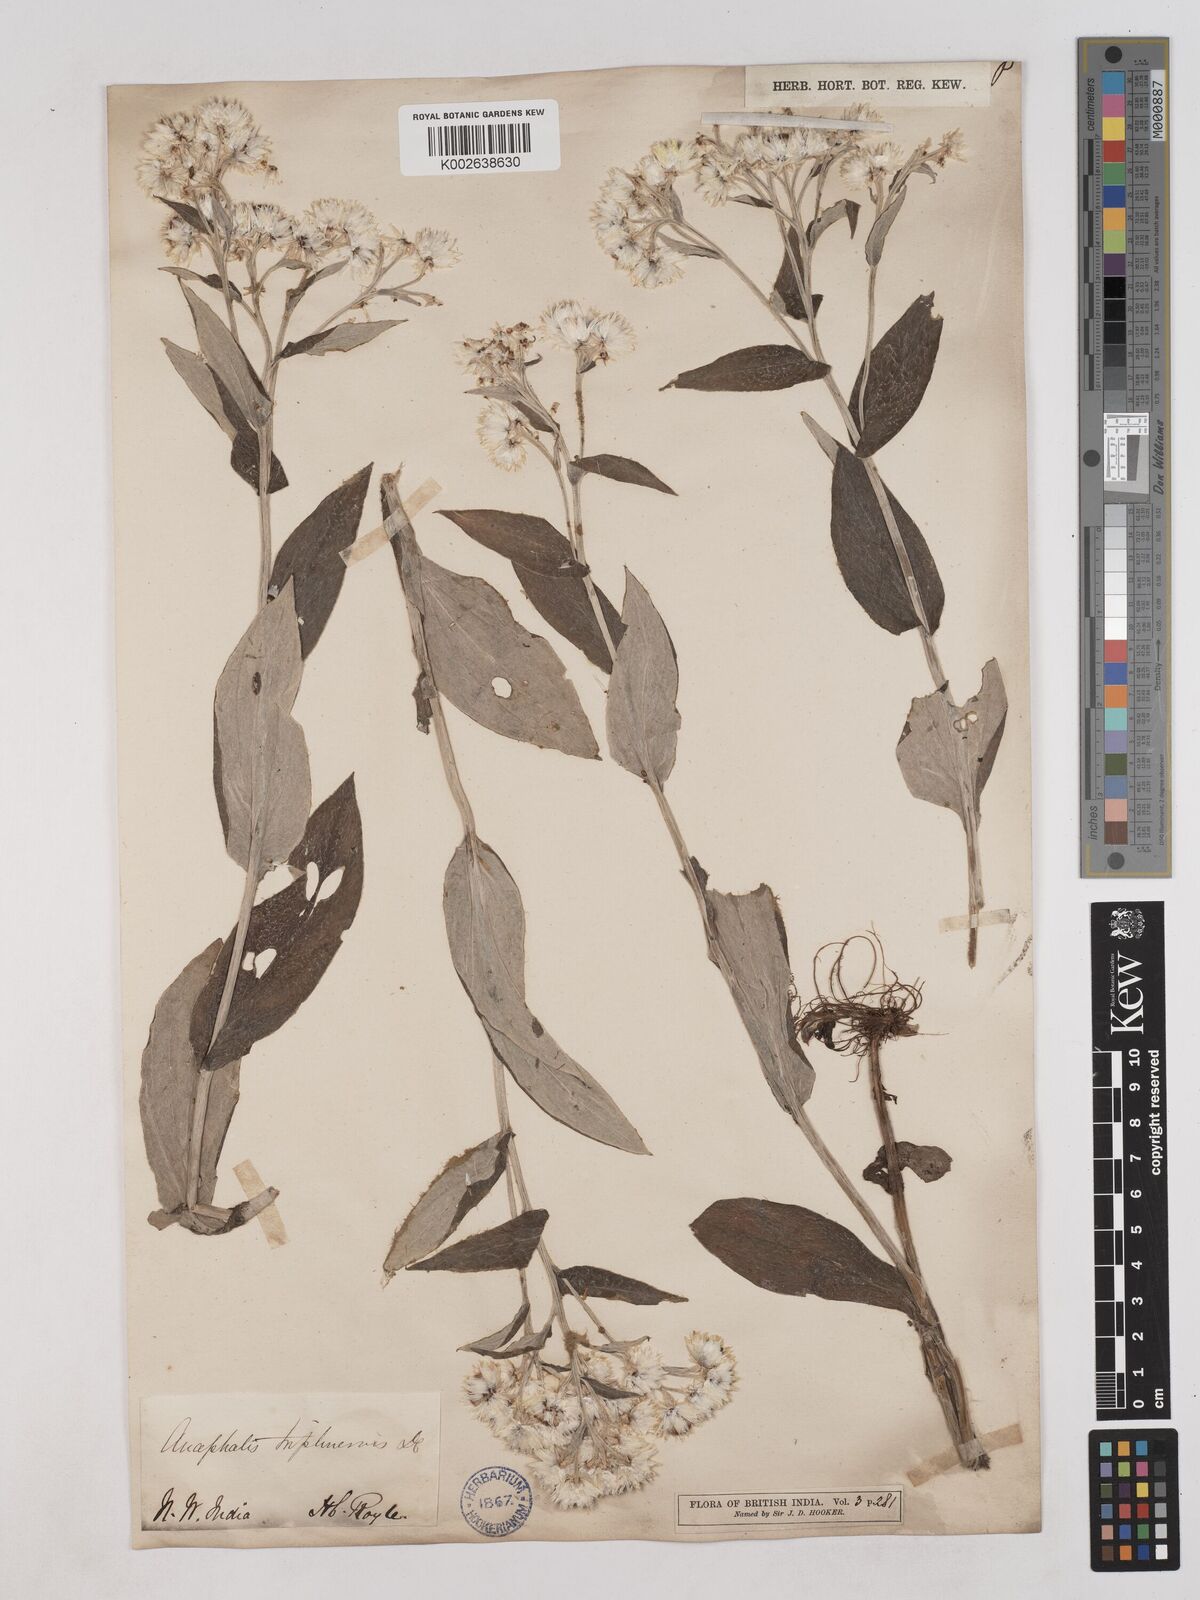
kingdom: Plantae
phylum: Tracheophyta
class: Magnoliopsida
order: Asterales
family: Asteraceae
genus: Anaphalis
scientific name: Anaphalis triplinervis
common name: Pearly everlasting
